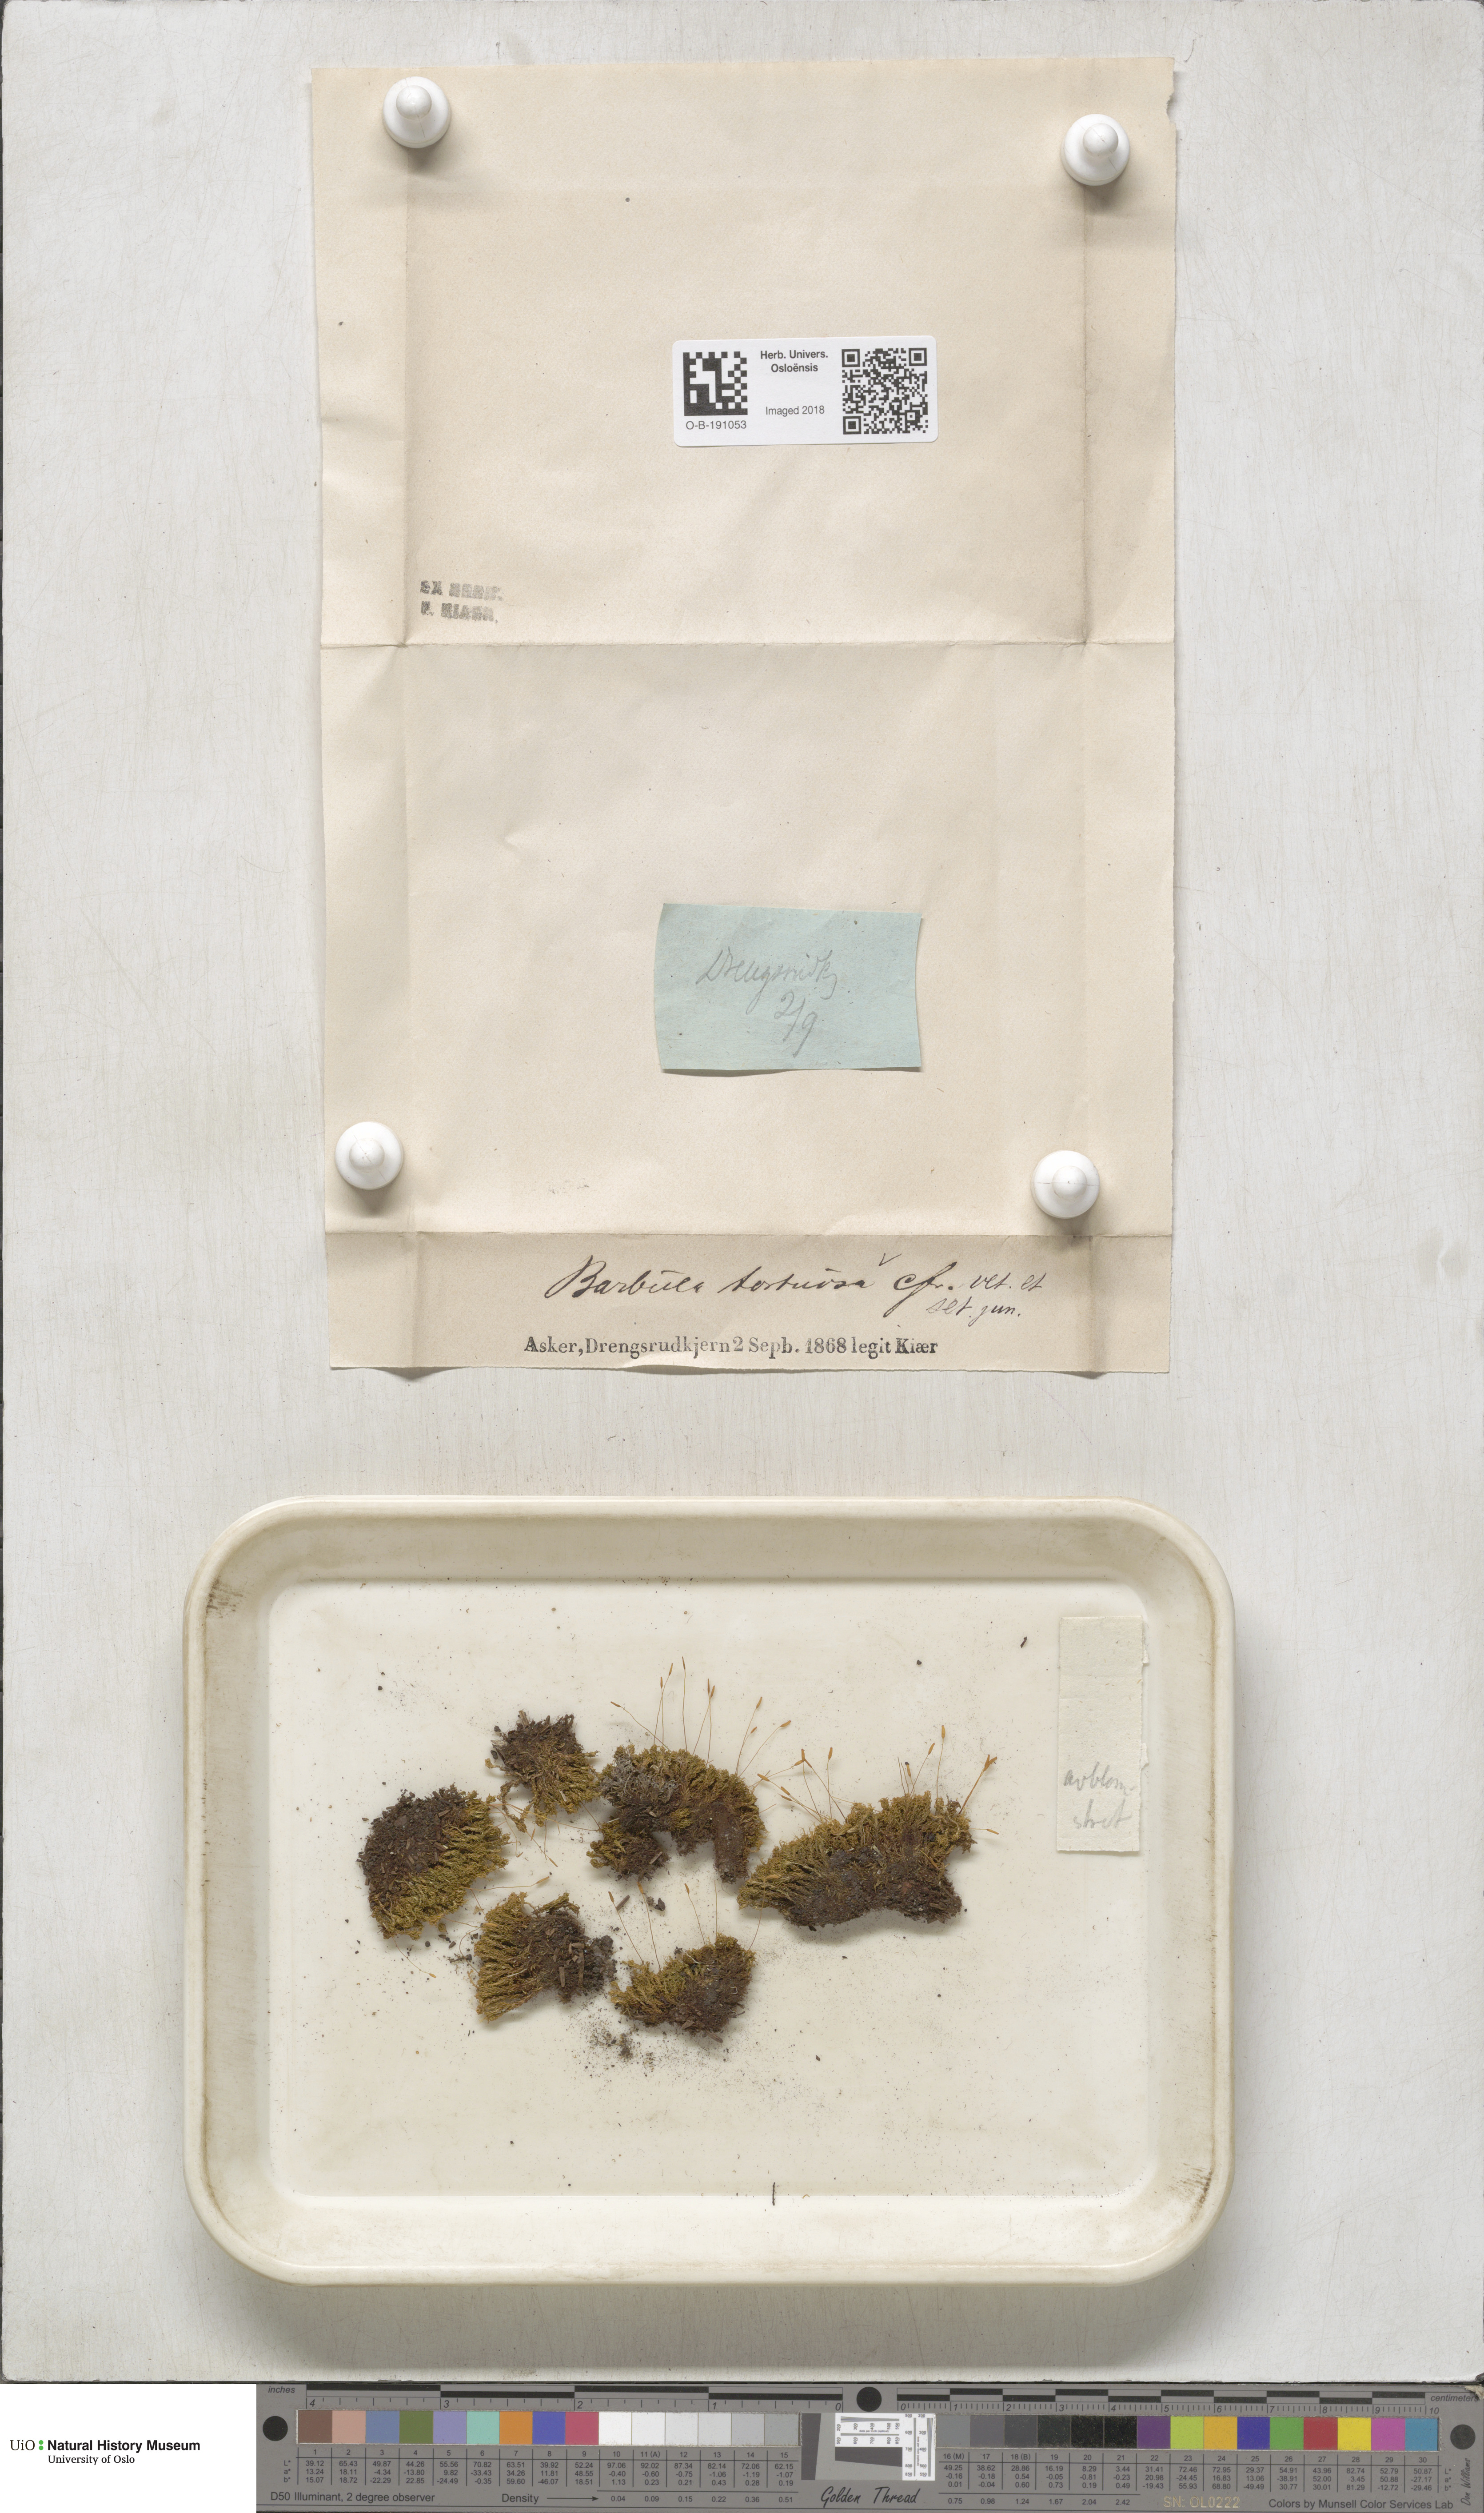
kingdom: Plantae
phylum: Bryophyta
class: Bryopsida
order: Pottiales
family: Pottiaceae
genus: Tortella
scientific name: Tortella tortuosa
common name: Frizzled crisp moss
